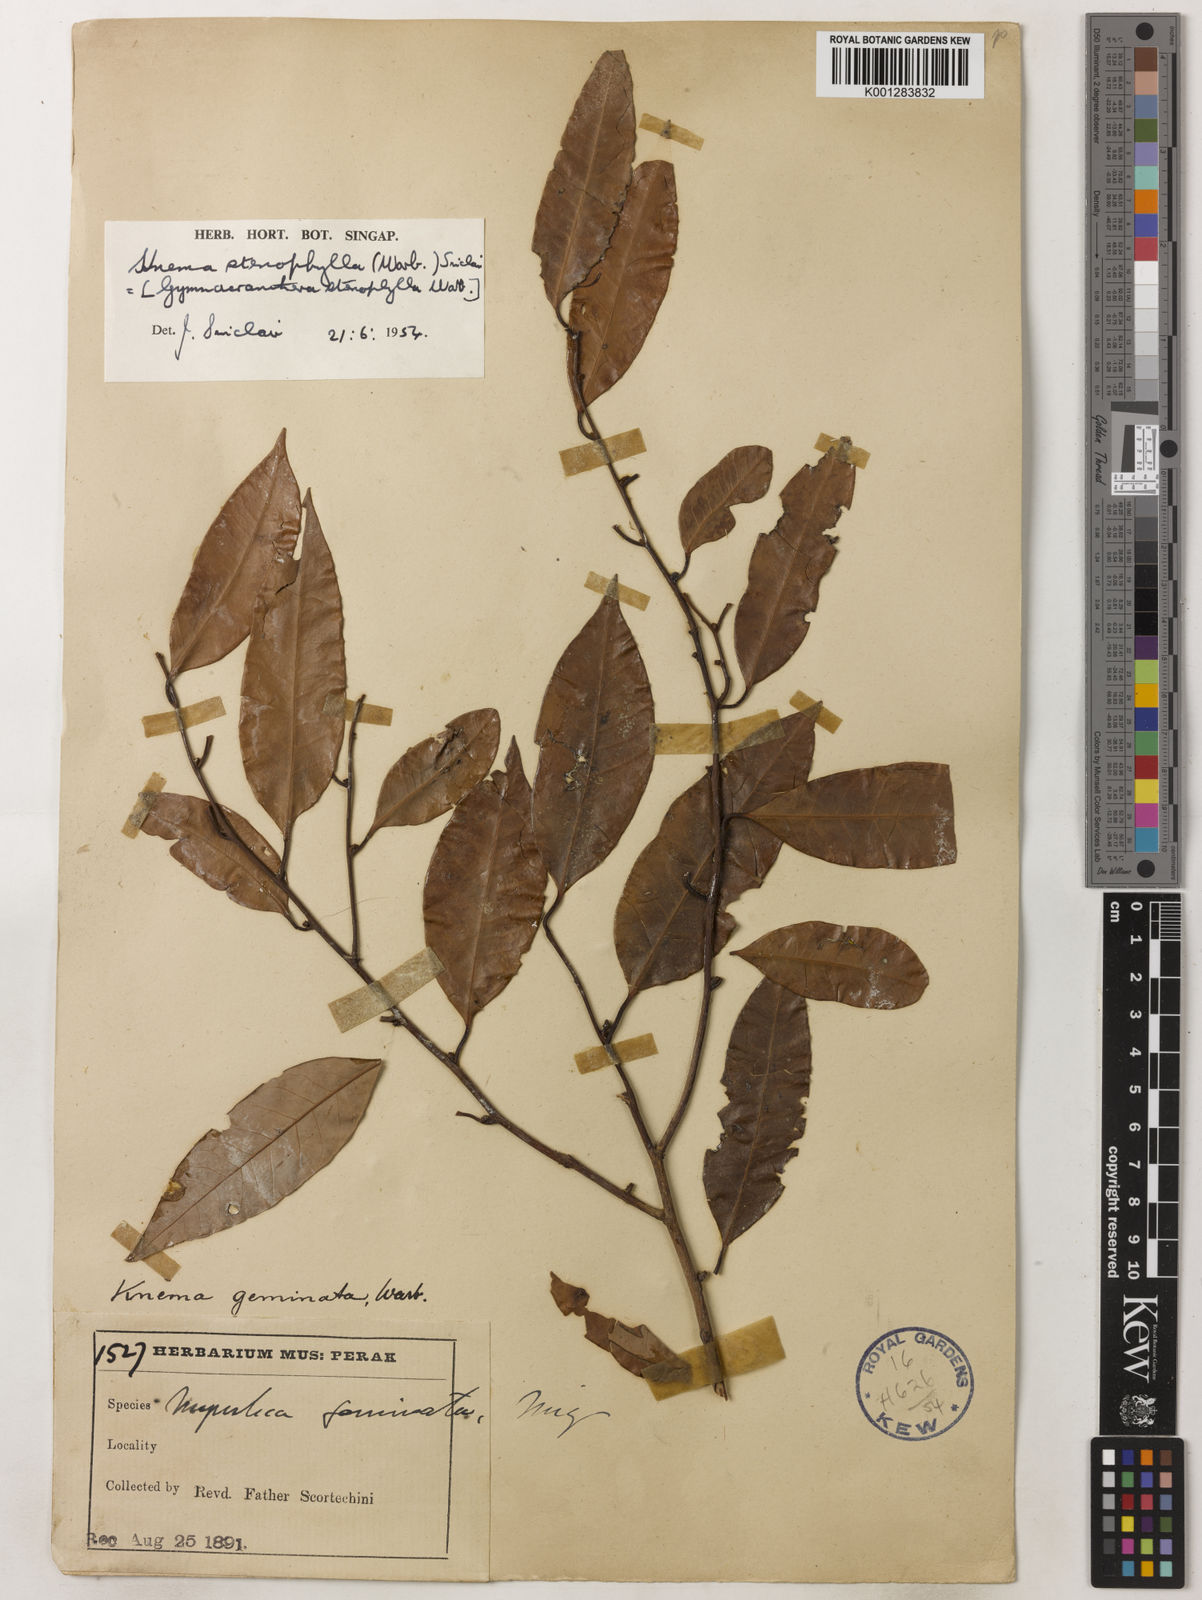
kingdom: Plantae
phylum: Tracheophyta
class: Magnoliopsida
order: Magnoliales
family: Myristicaceae
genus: Knema
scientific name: Knema stenophylla
